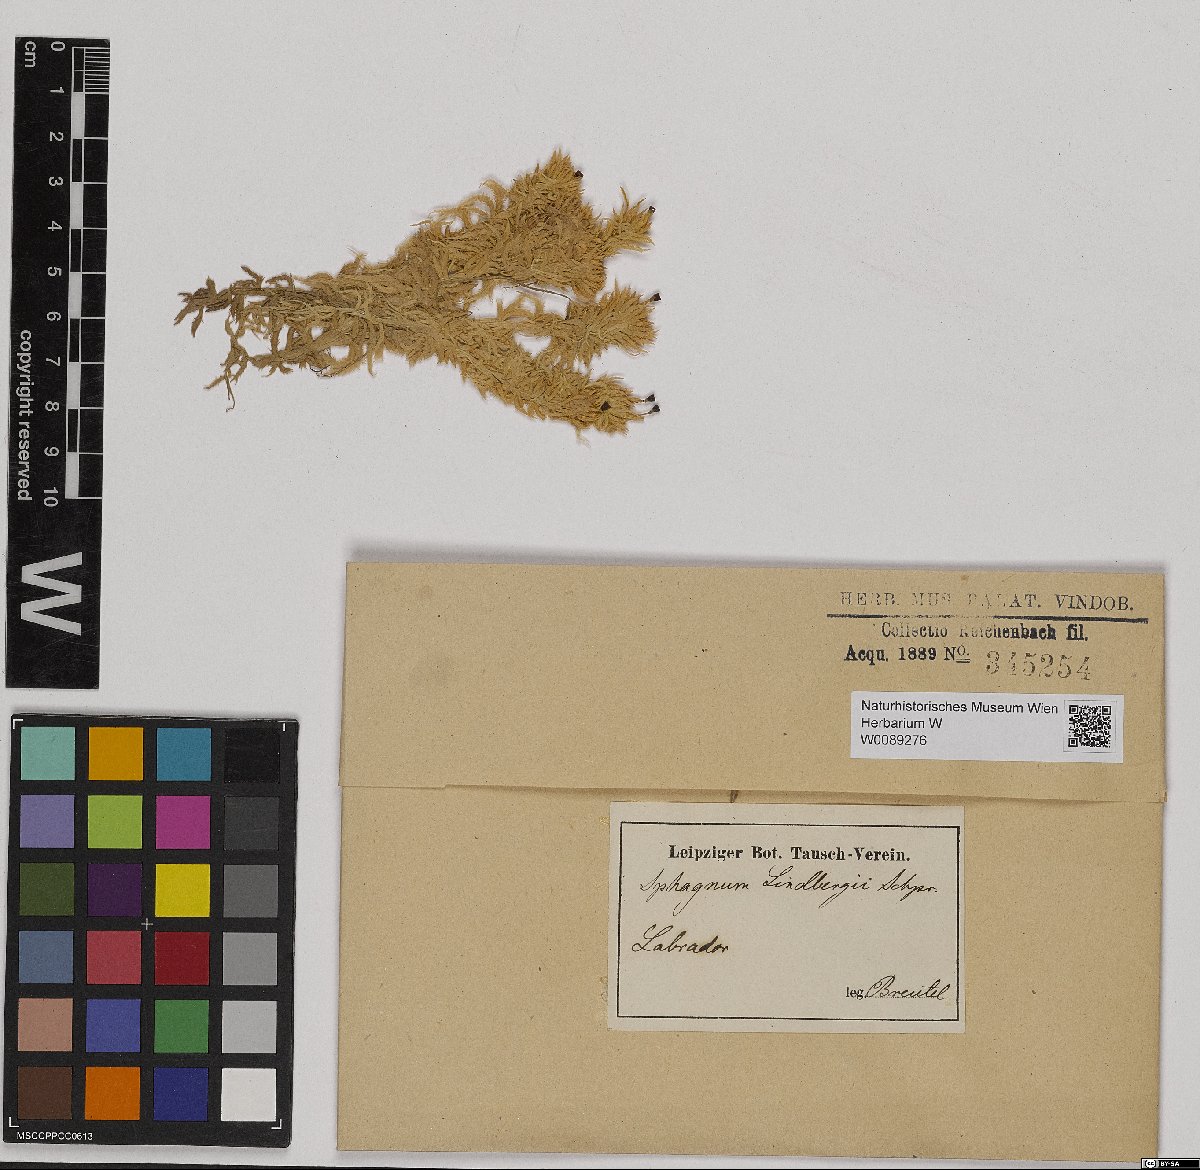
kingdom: Plantae
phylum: Bryophyta
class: Sphagnopsida
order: Sphagnales
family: Sphagnaceae
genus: Sphagnum
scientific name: Sphagnum lindbergii
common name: Lindberg's peat moss
